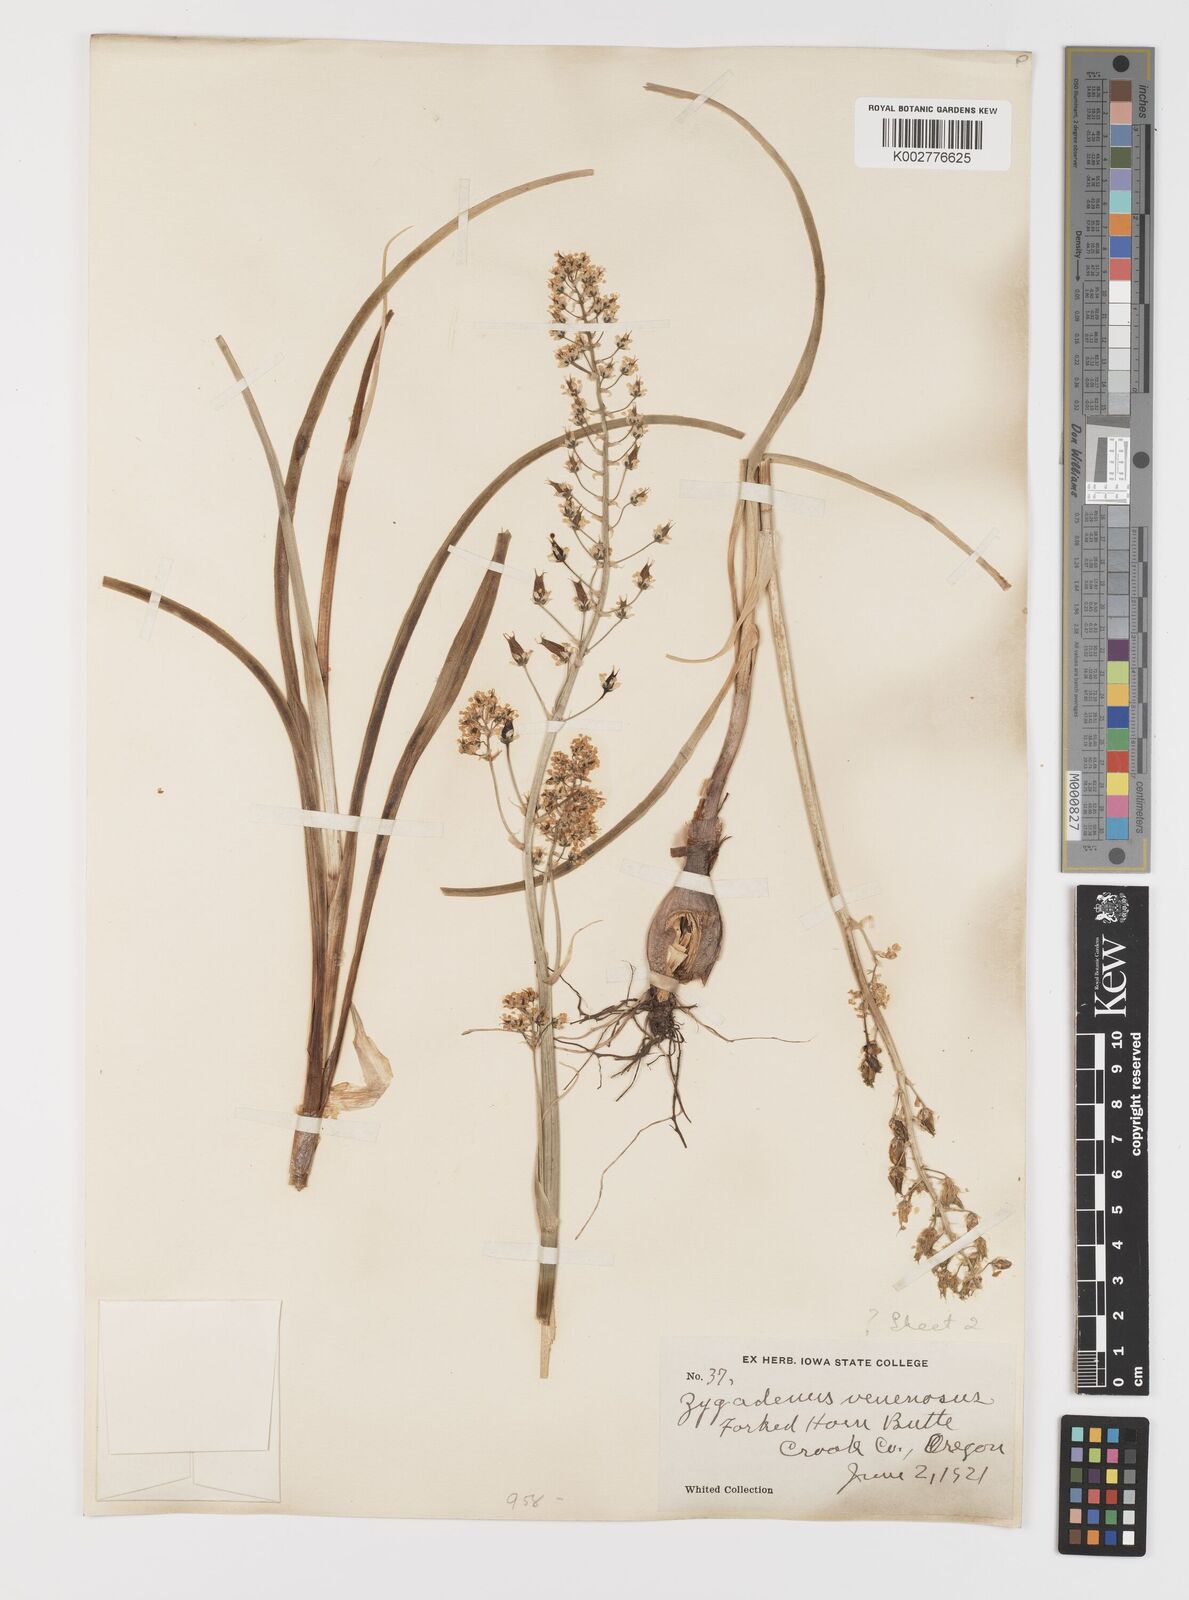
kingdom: Plantae
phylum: Tracheophyta
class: Liliopsida
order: Liliales
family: Melanthiaceae
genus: Toxicoscordion
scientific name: Toxicoscordion venenosum
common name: Meadow death camas
